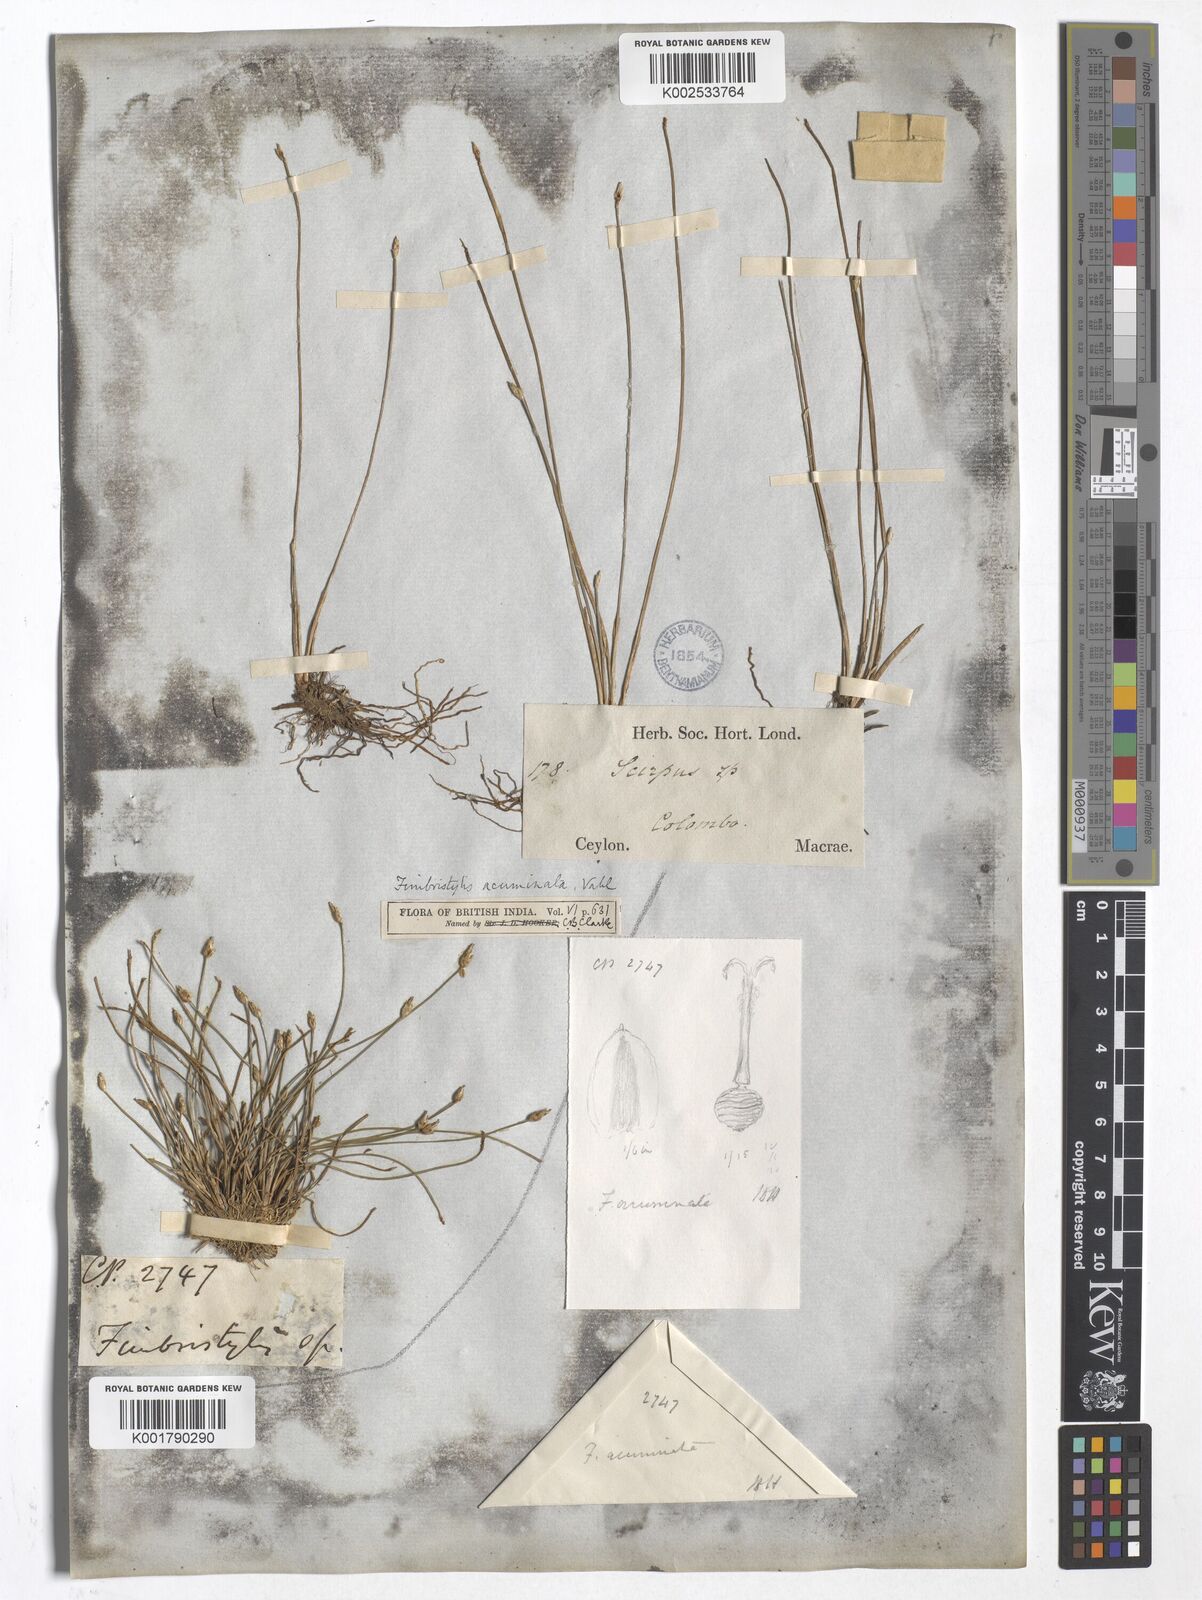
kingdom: Plantae
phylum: Tracheophyta
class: Liliopsida
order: Poales
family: Cyperaceae
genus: Fimbristylis
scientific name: Fimbristylis acuminata
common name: Pointed fimbristylis
